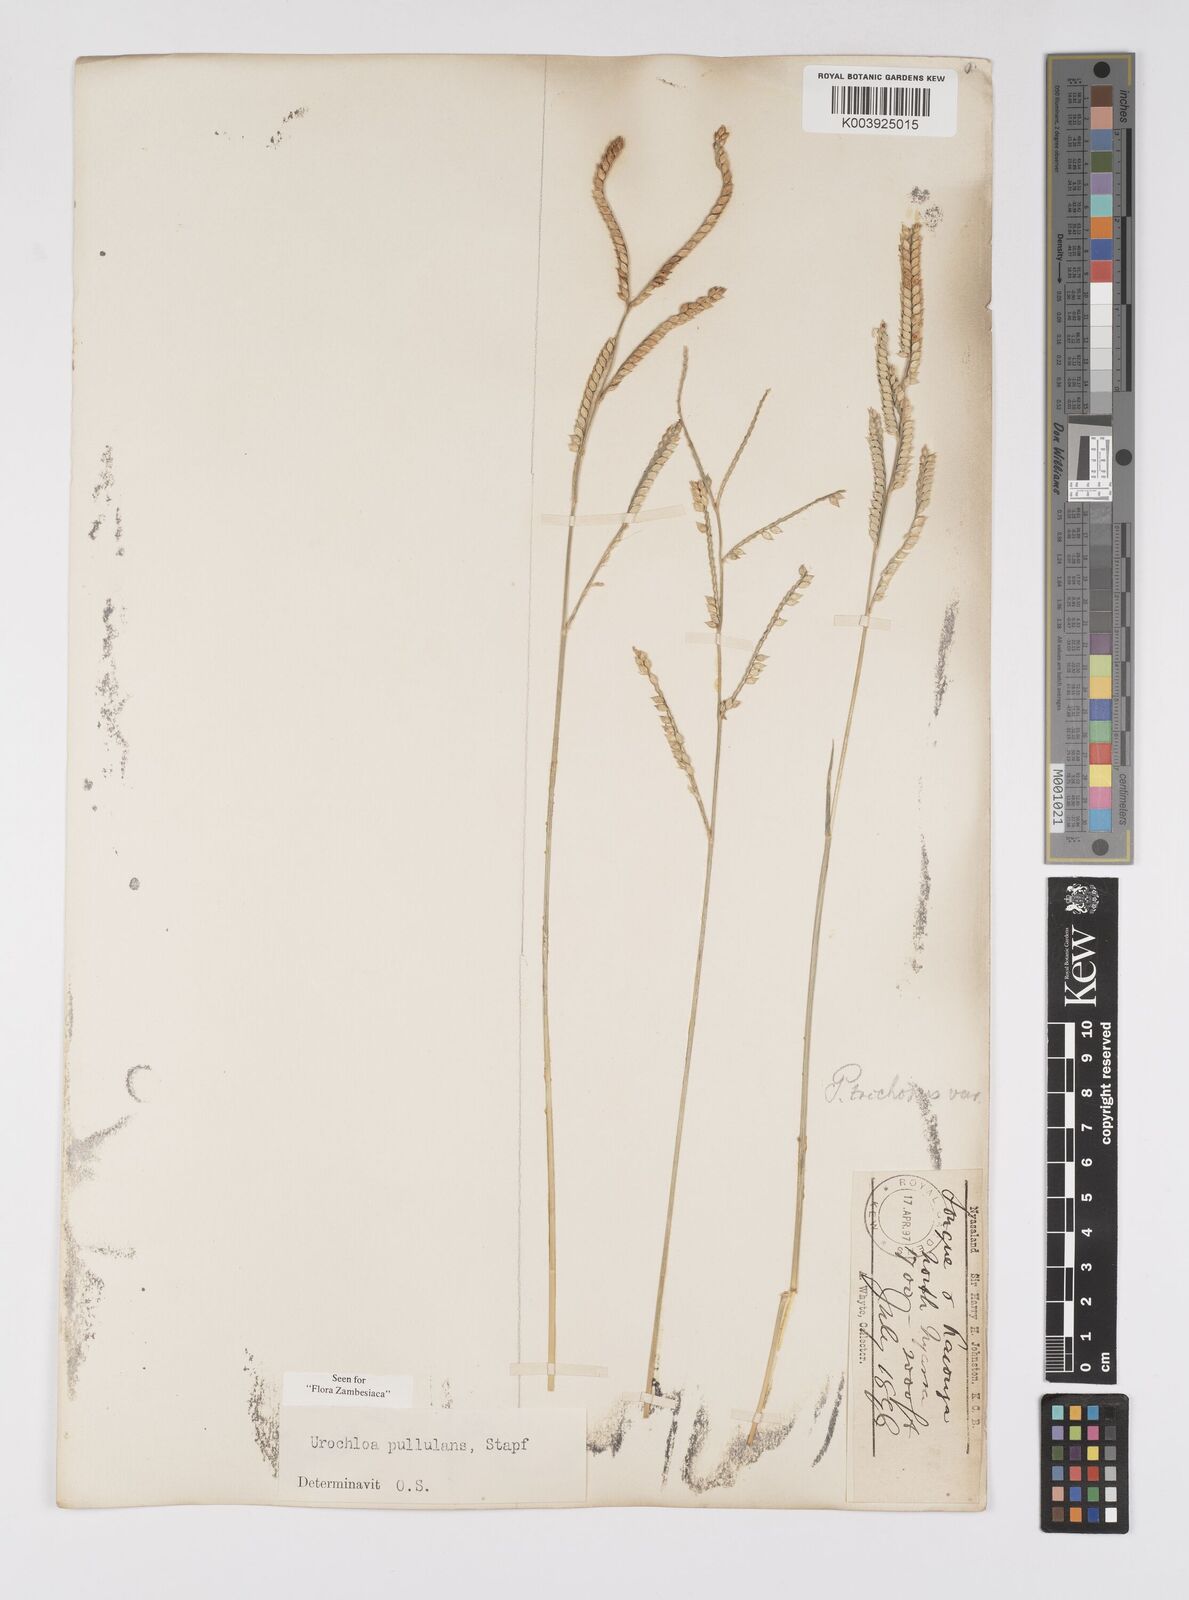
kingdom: Plantae
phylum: Tracheophyta
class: Liliopsida
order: Poales
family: Poaceae
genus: Urochloa
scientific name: Urochloa trichopus
